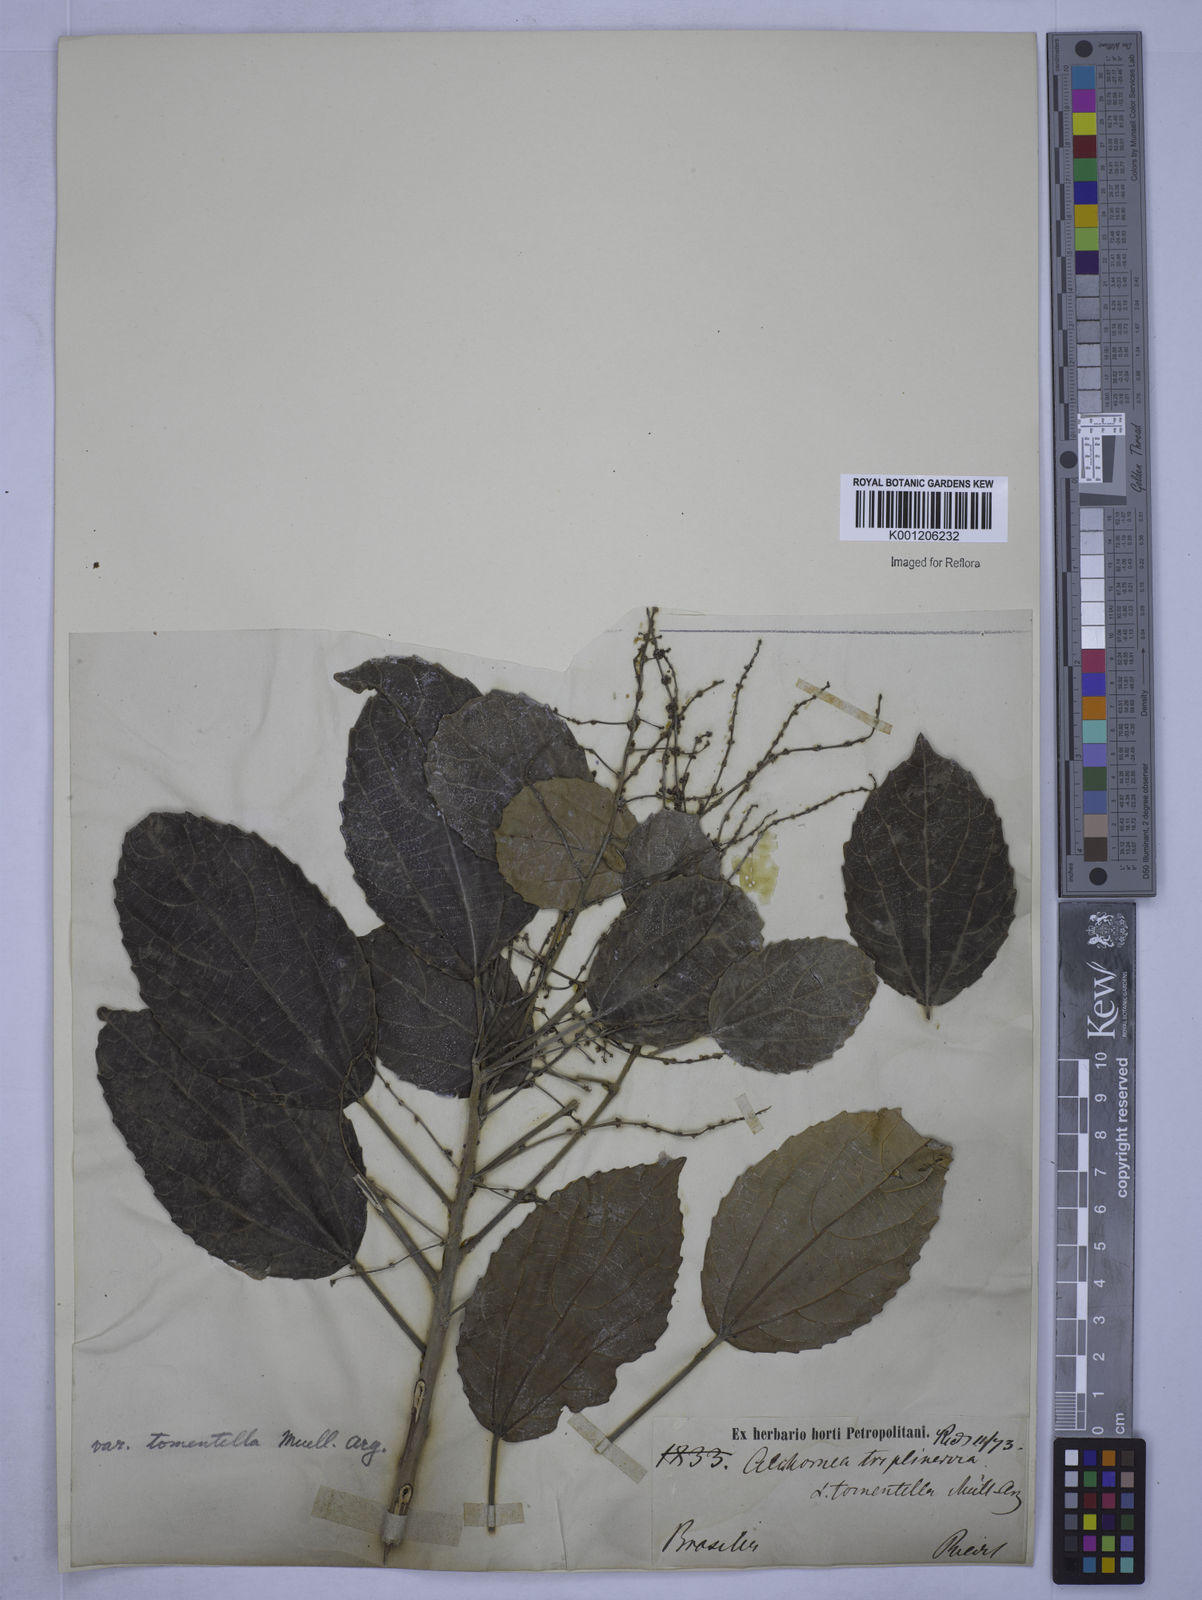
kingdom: Plantae
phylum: Tracheophyta
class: Magnoliopsida
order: Malpighiales
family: Euphorbiaceae
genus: Alchornea
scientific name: Alchornea
